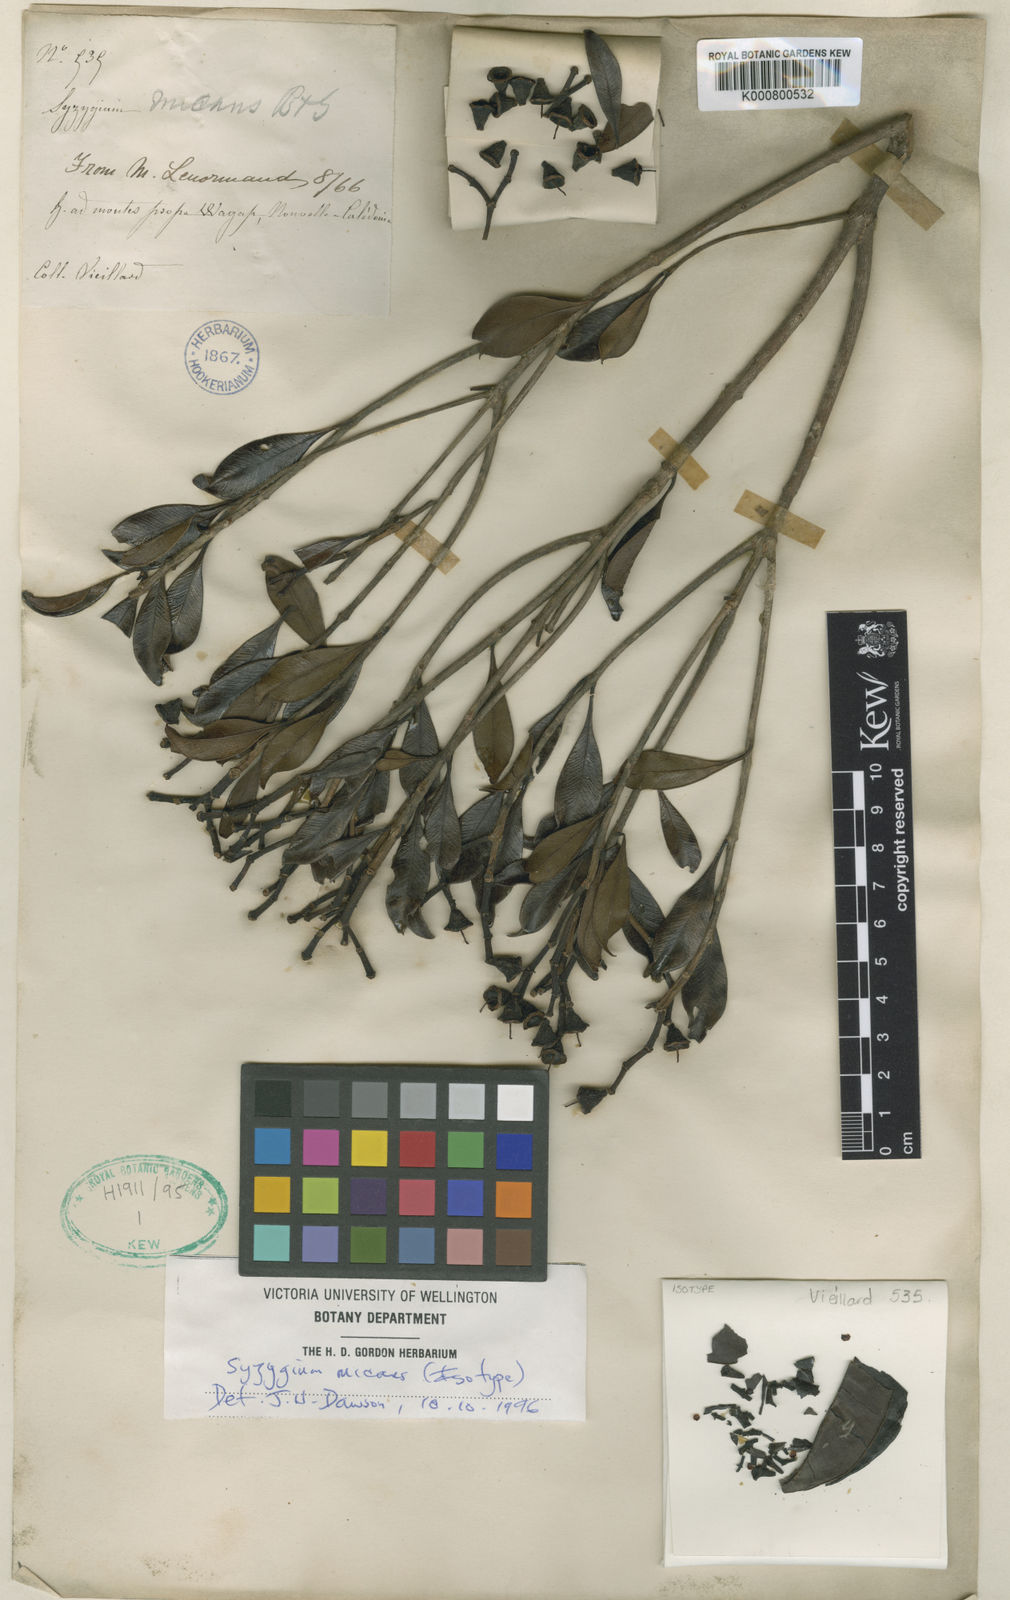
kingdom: Plantae
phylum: Tracheophyta
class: Magnoliopsida
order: Myrtales
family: Myrtaceae
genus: Syzygium
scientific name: Syzygium micans
